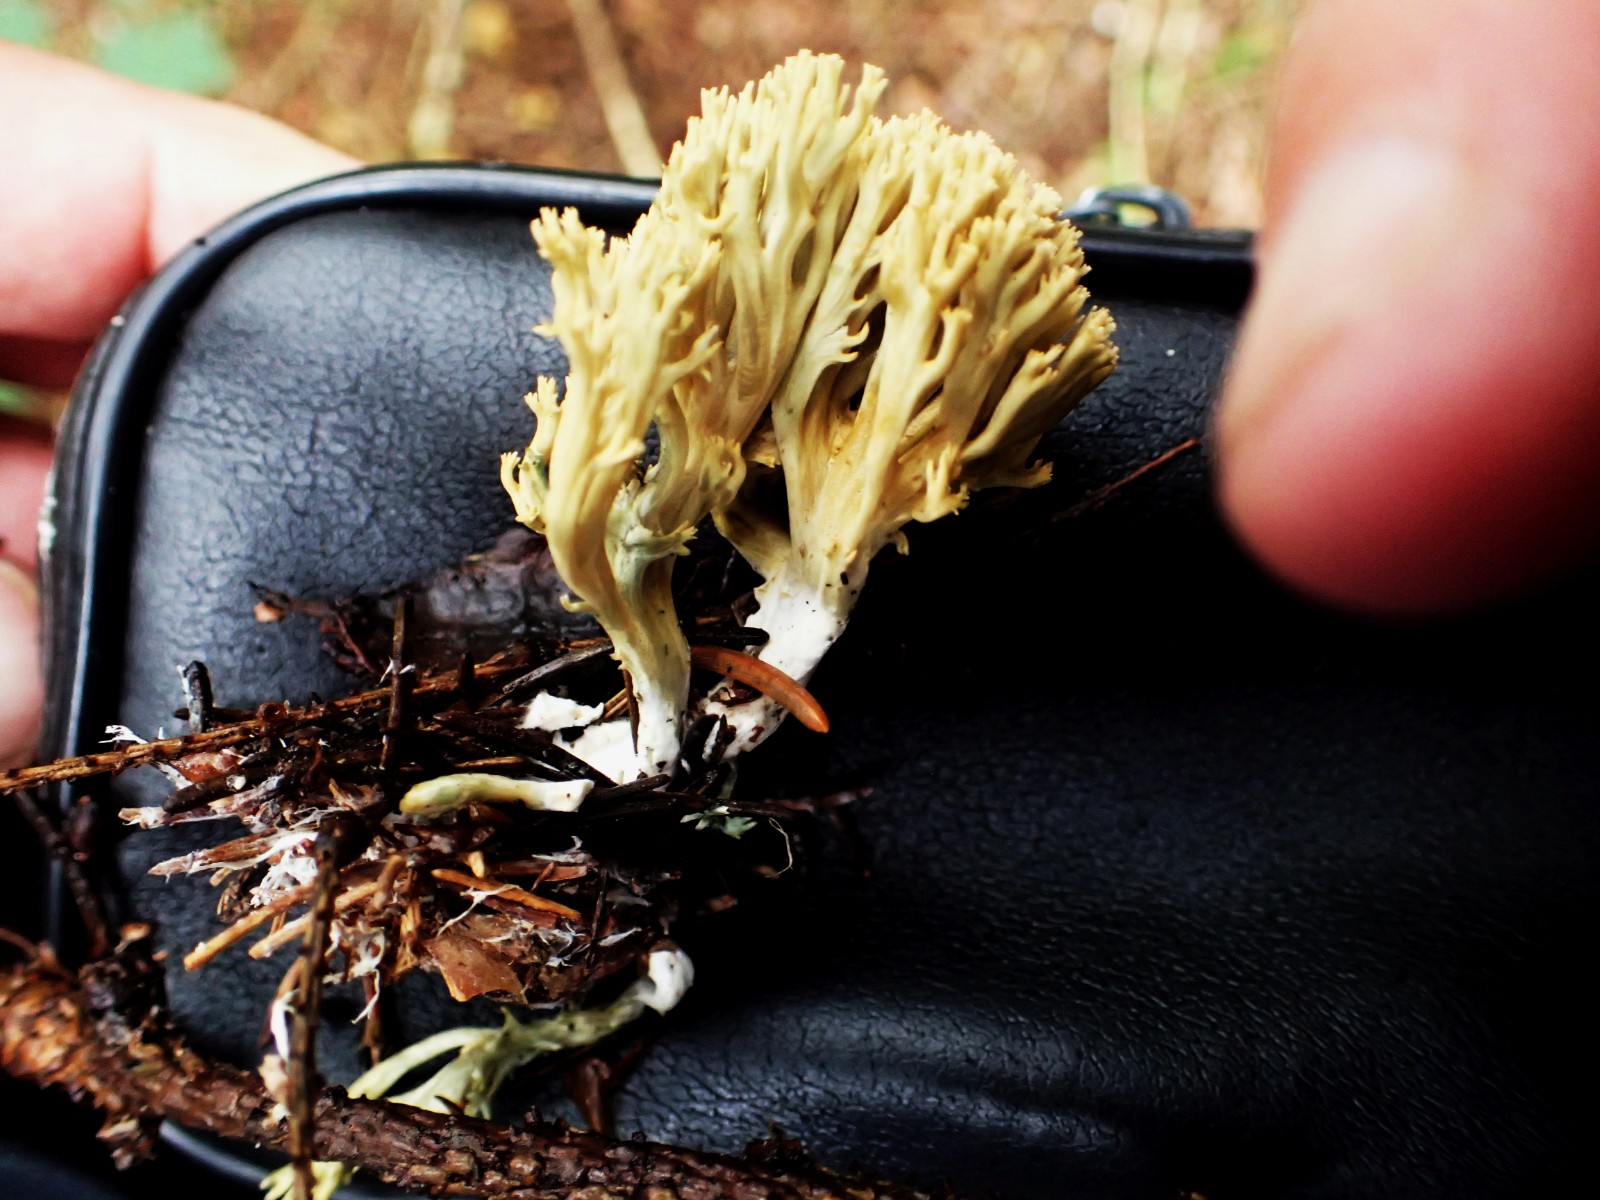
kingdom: Fungi
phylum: Basidiomycota
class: Agaricomycetes
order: Gomphales
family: Gomphaceae
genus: Phaeoclavulina
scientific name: Phaeoclavulina eumorpha
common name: gran-koralsvamp
